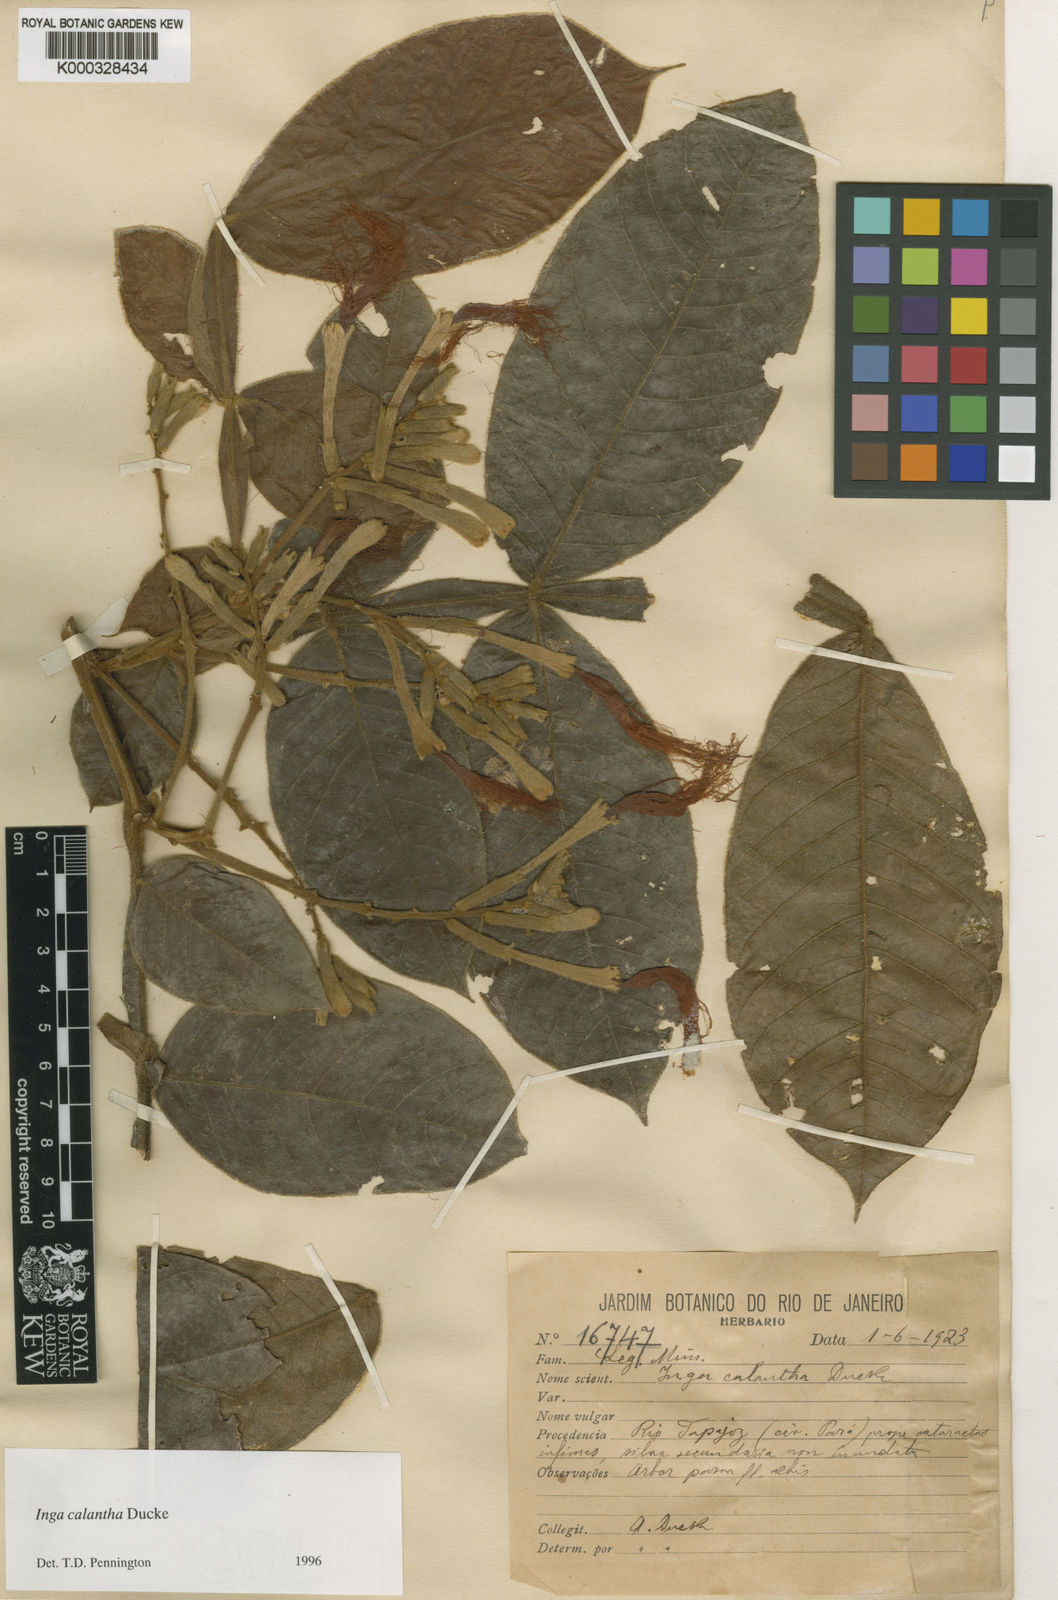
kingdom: Plantae
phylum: Tracheophyta
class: Magnoliopsida
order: Fabales
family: Fabaceae
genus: Inga
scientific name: Inga calantha
